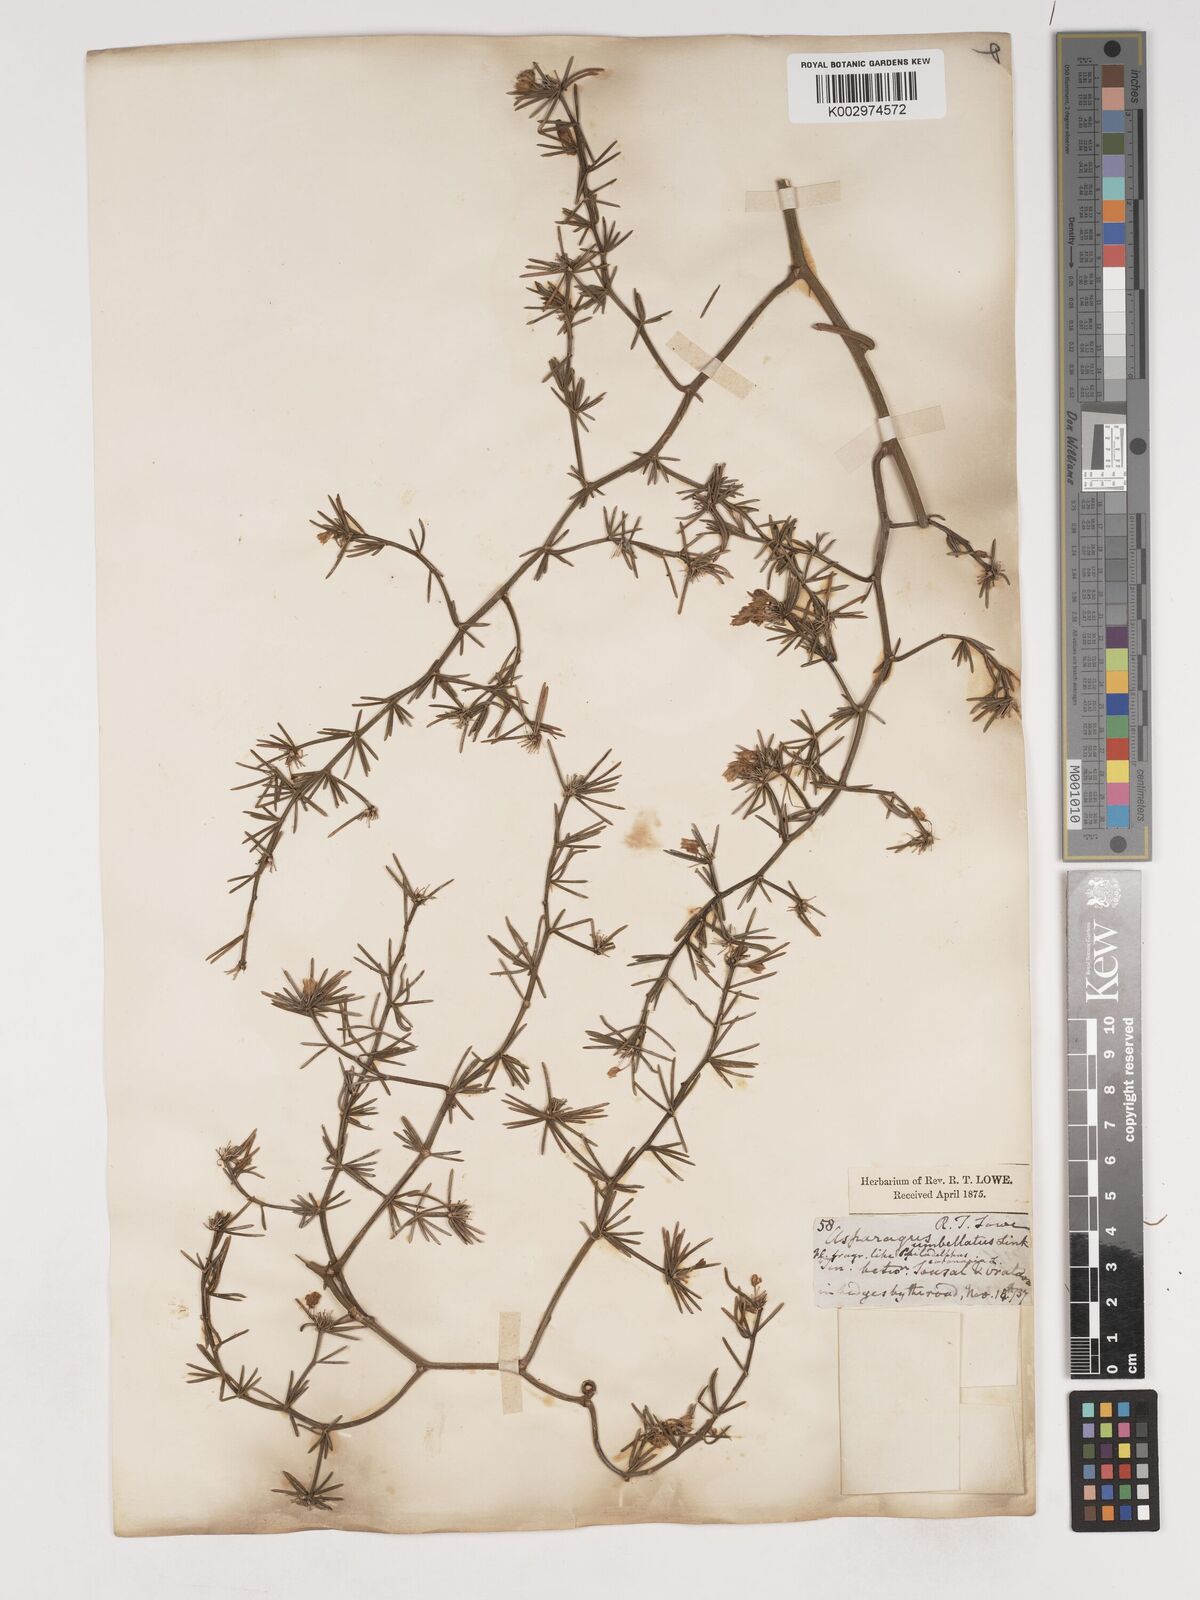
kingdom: Plantae
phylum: Tracheophyta
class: Liliopsida
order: Asparagales
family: Asparagaceae
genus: Asparagus
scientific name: Asparagus umbellatus
